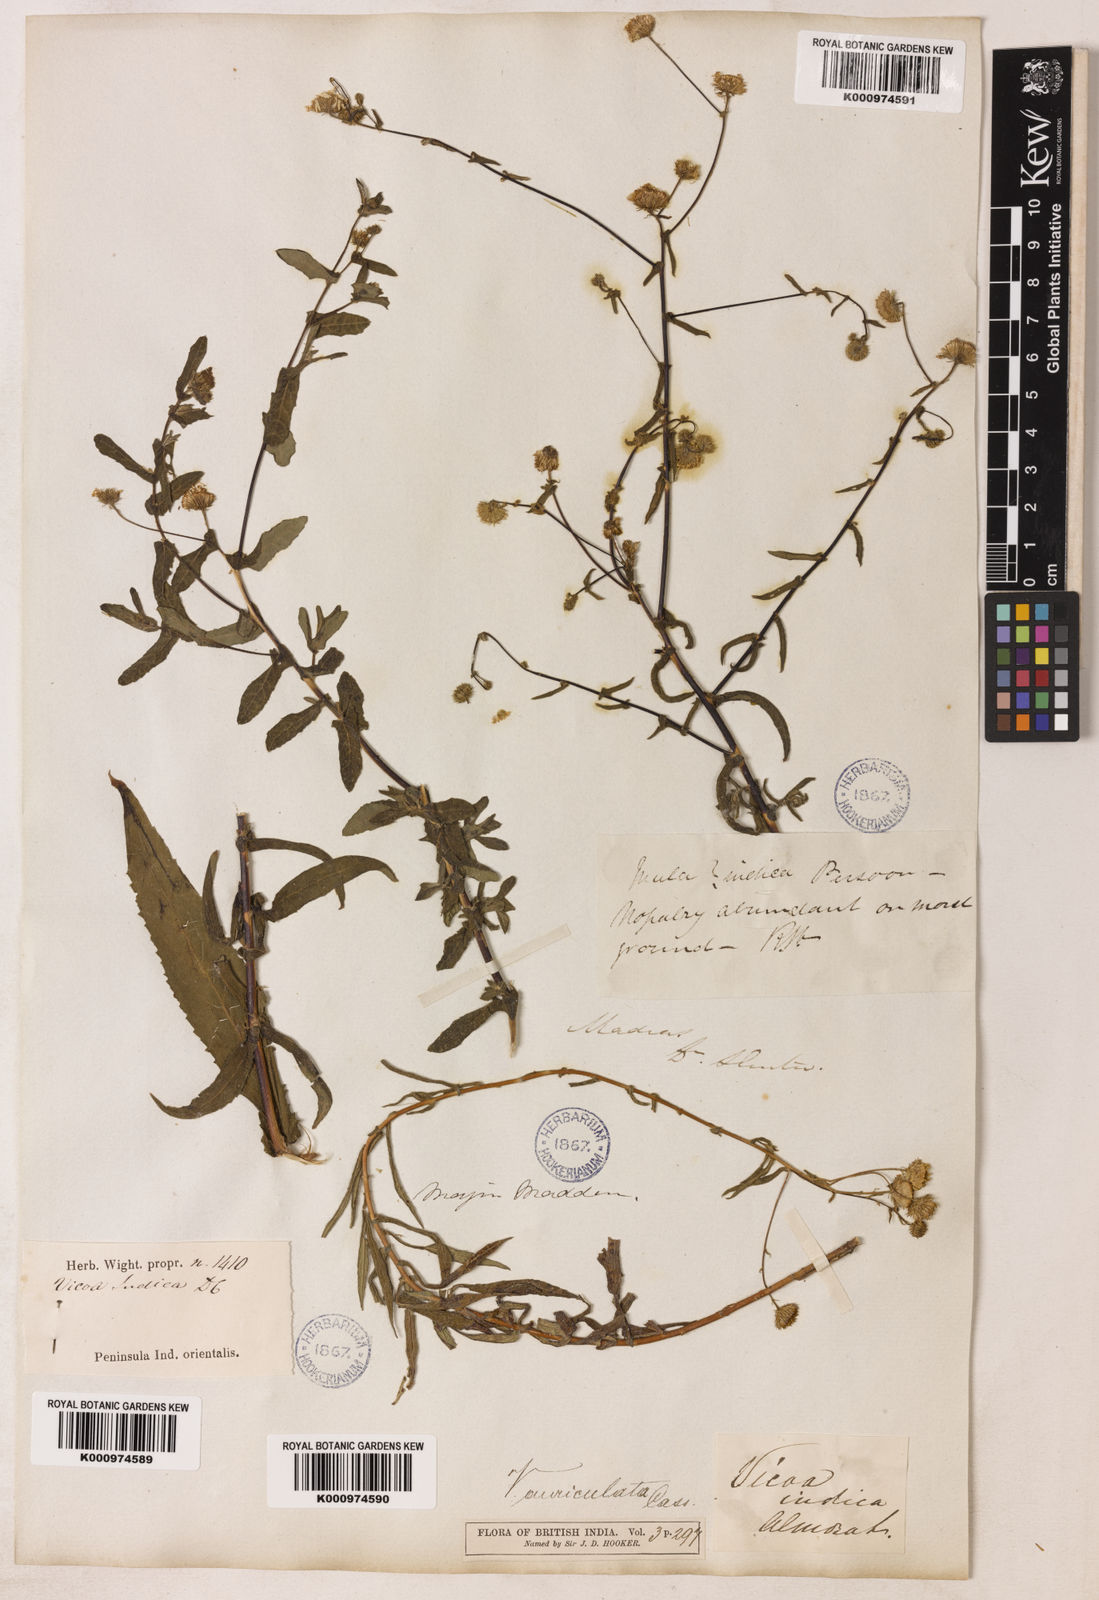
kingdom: Plantae
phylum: Tracheophyta
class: Magnoliopsida
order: Asterales
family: Asteraceae
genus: Vicoa
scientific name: Vicoa indica
